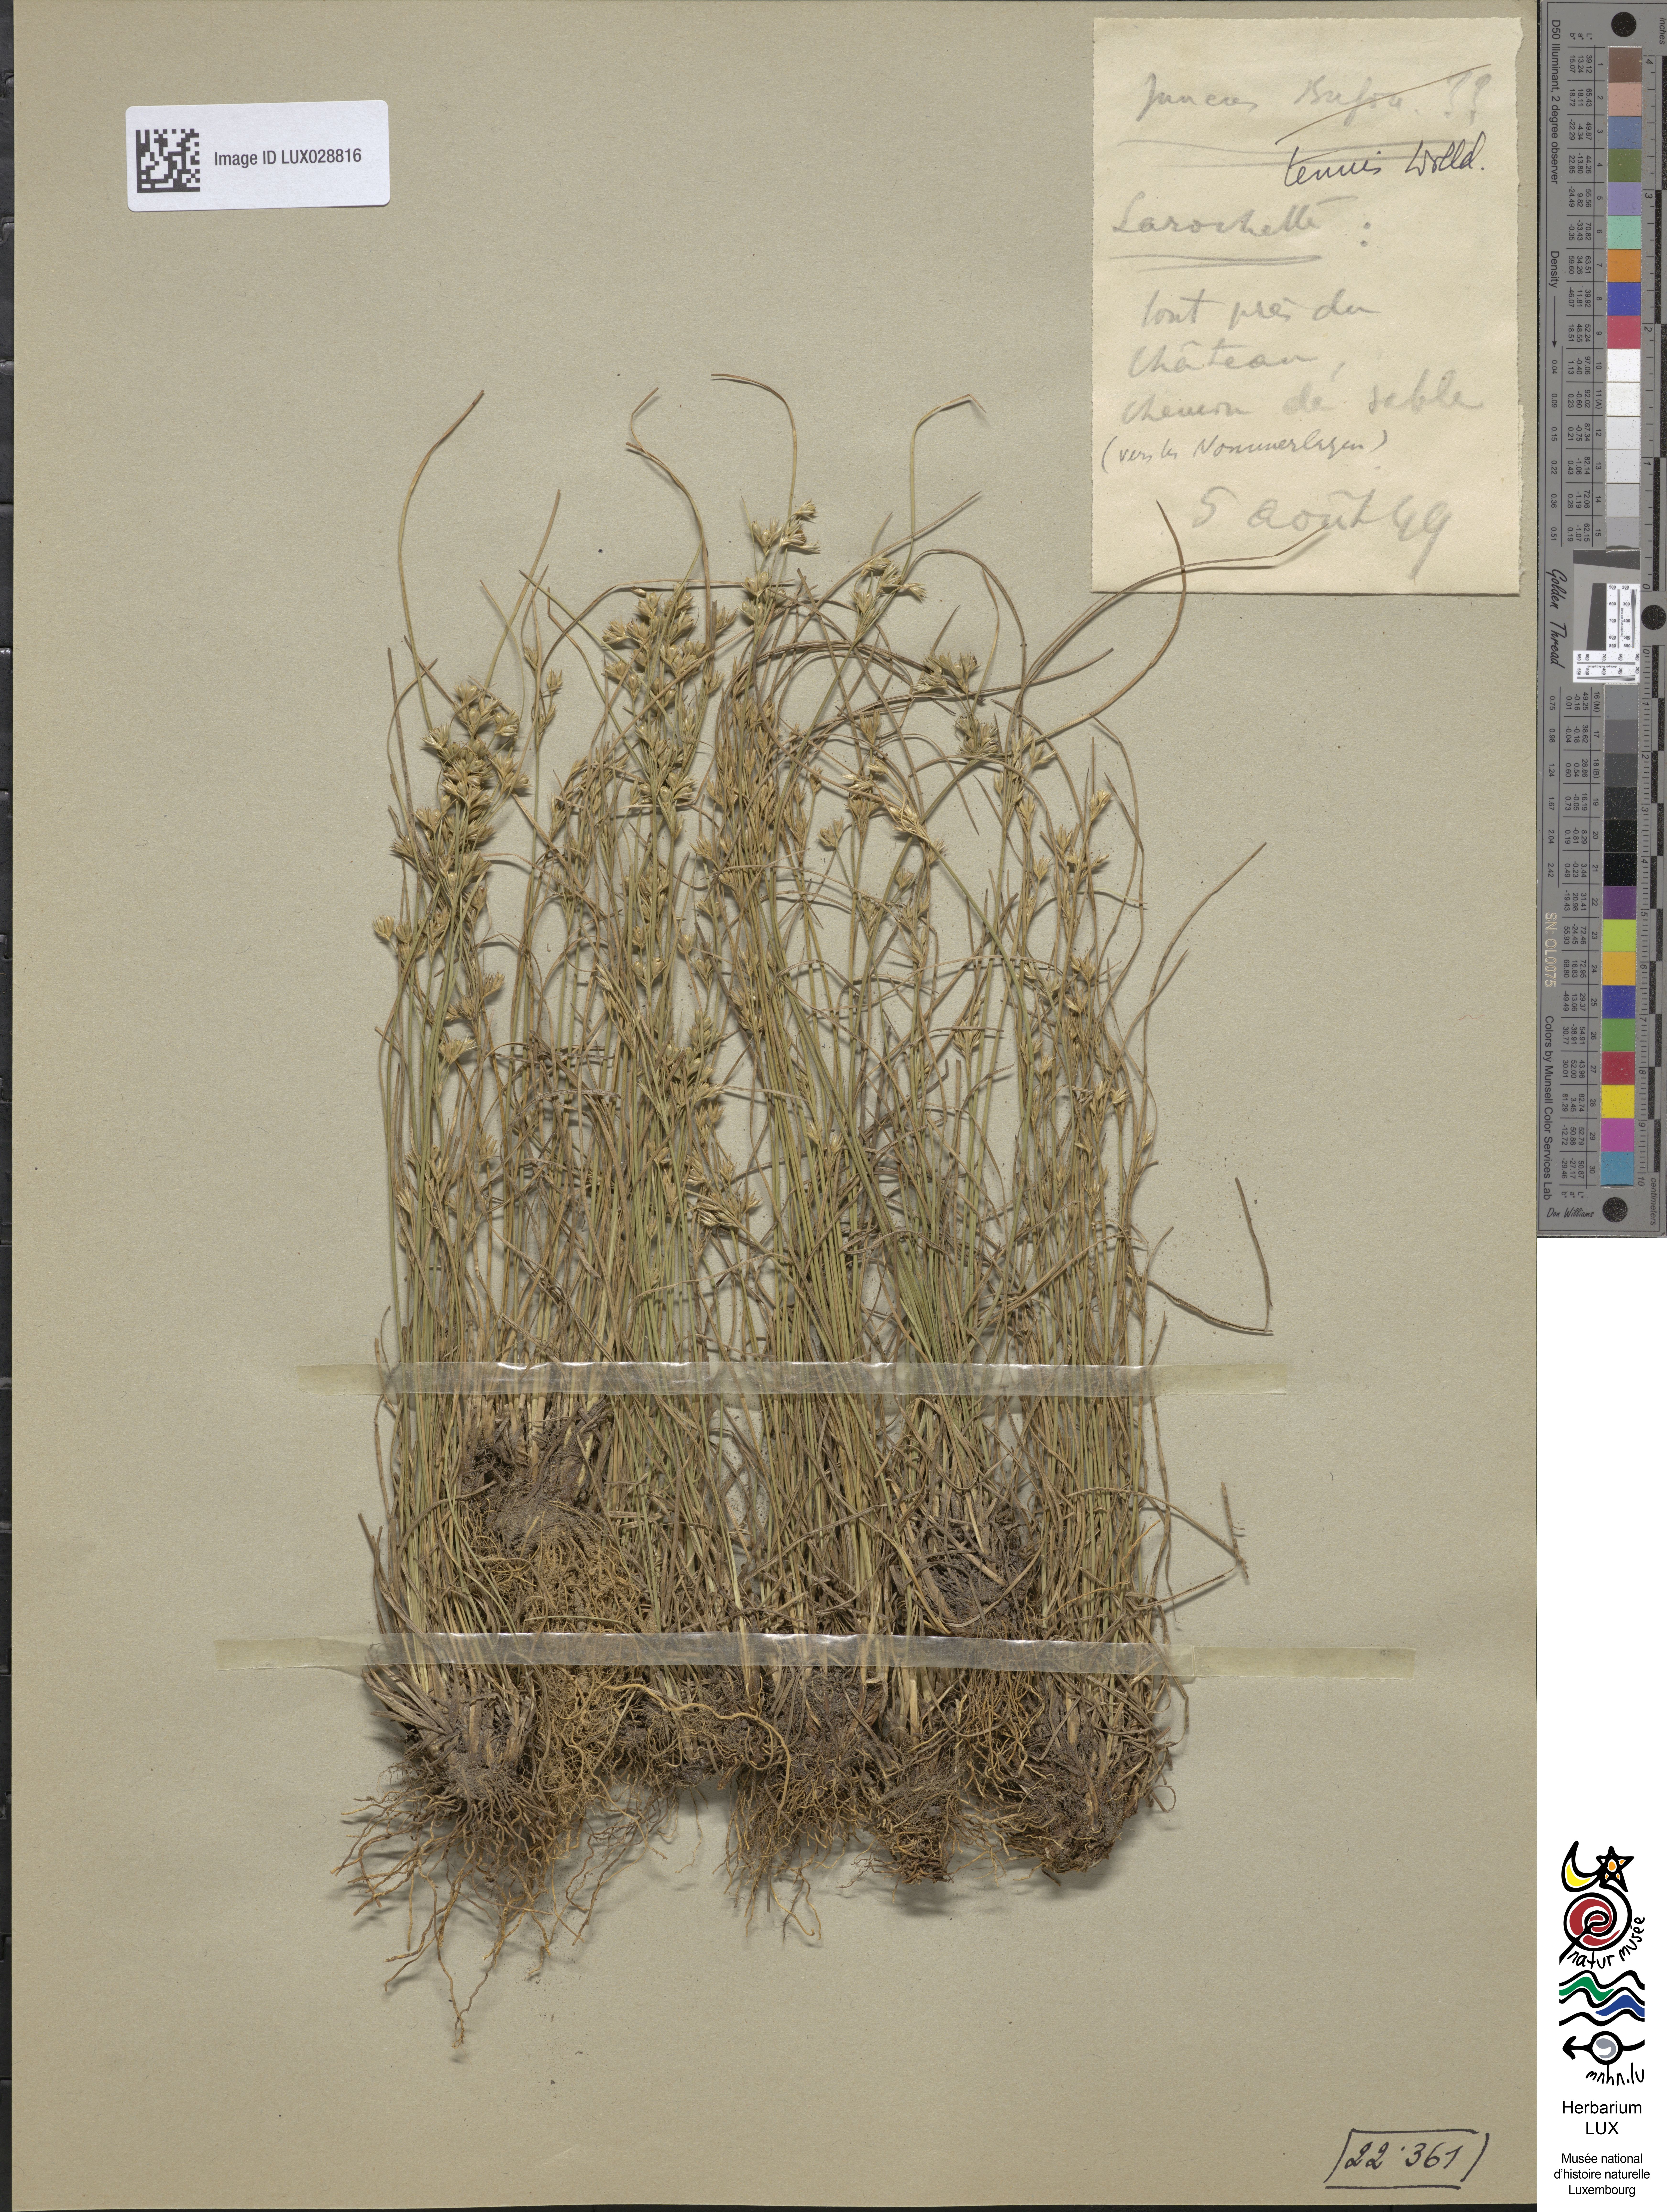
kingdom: Plantae
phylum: Tracheophyta
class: Liliopsida
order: Poales
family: Juncaceae
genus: Juncus
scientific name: Juncus tenuis
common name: Slender rush
